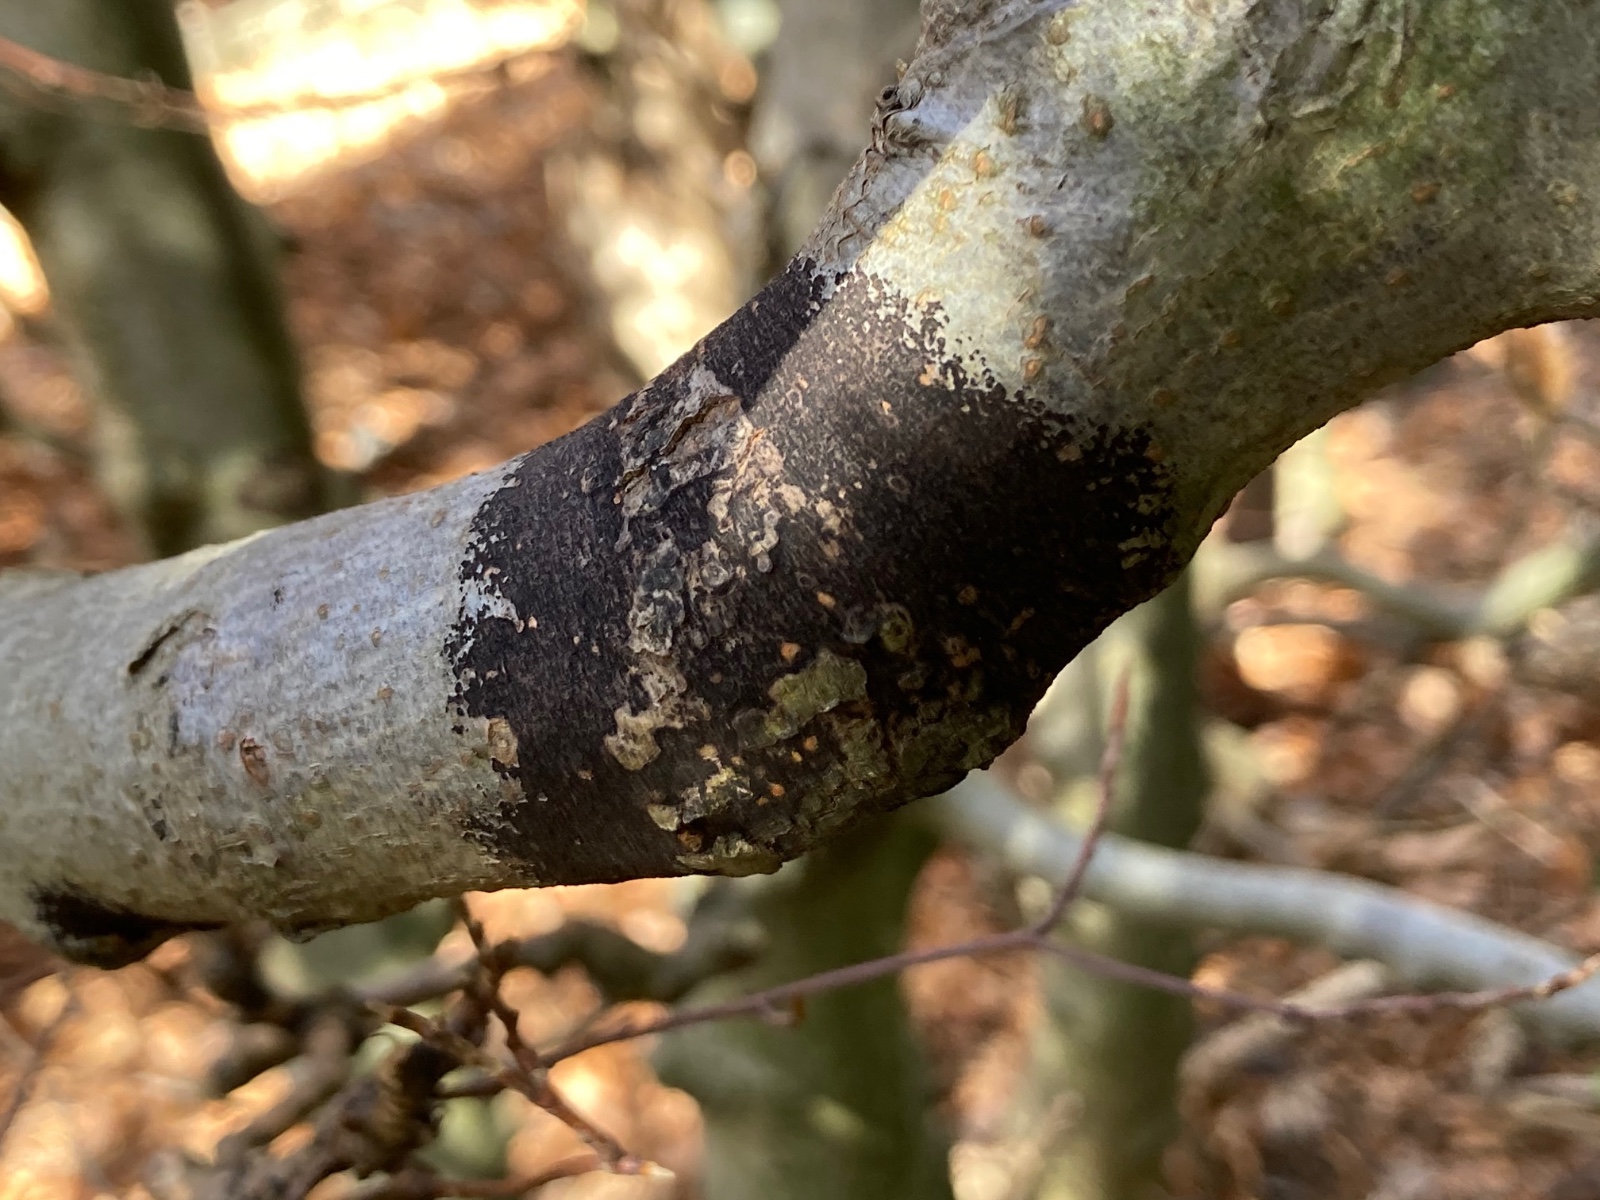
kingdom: Fungi
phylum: Ascomycota
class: Leotiomycetes
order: Rhytismatales
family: Ascodichaenaceae
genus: Ascodichaena
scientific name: Ascodichaena rugosa
